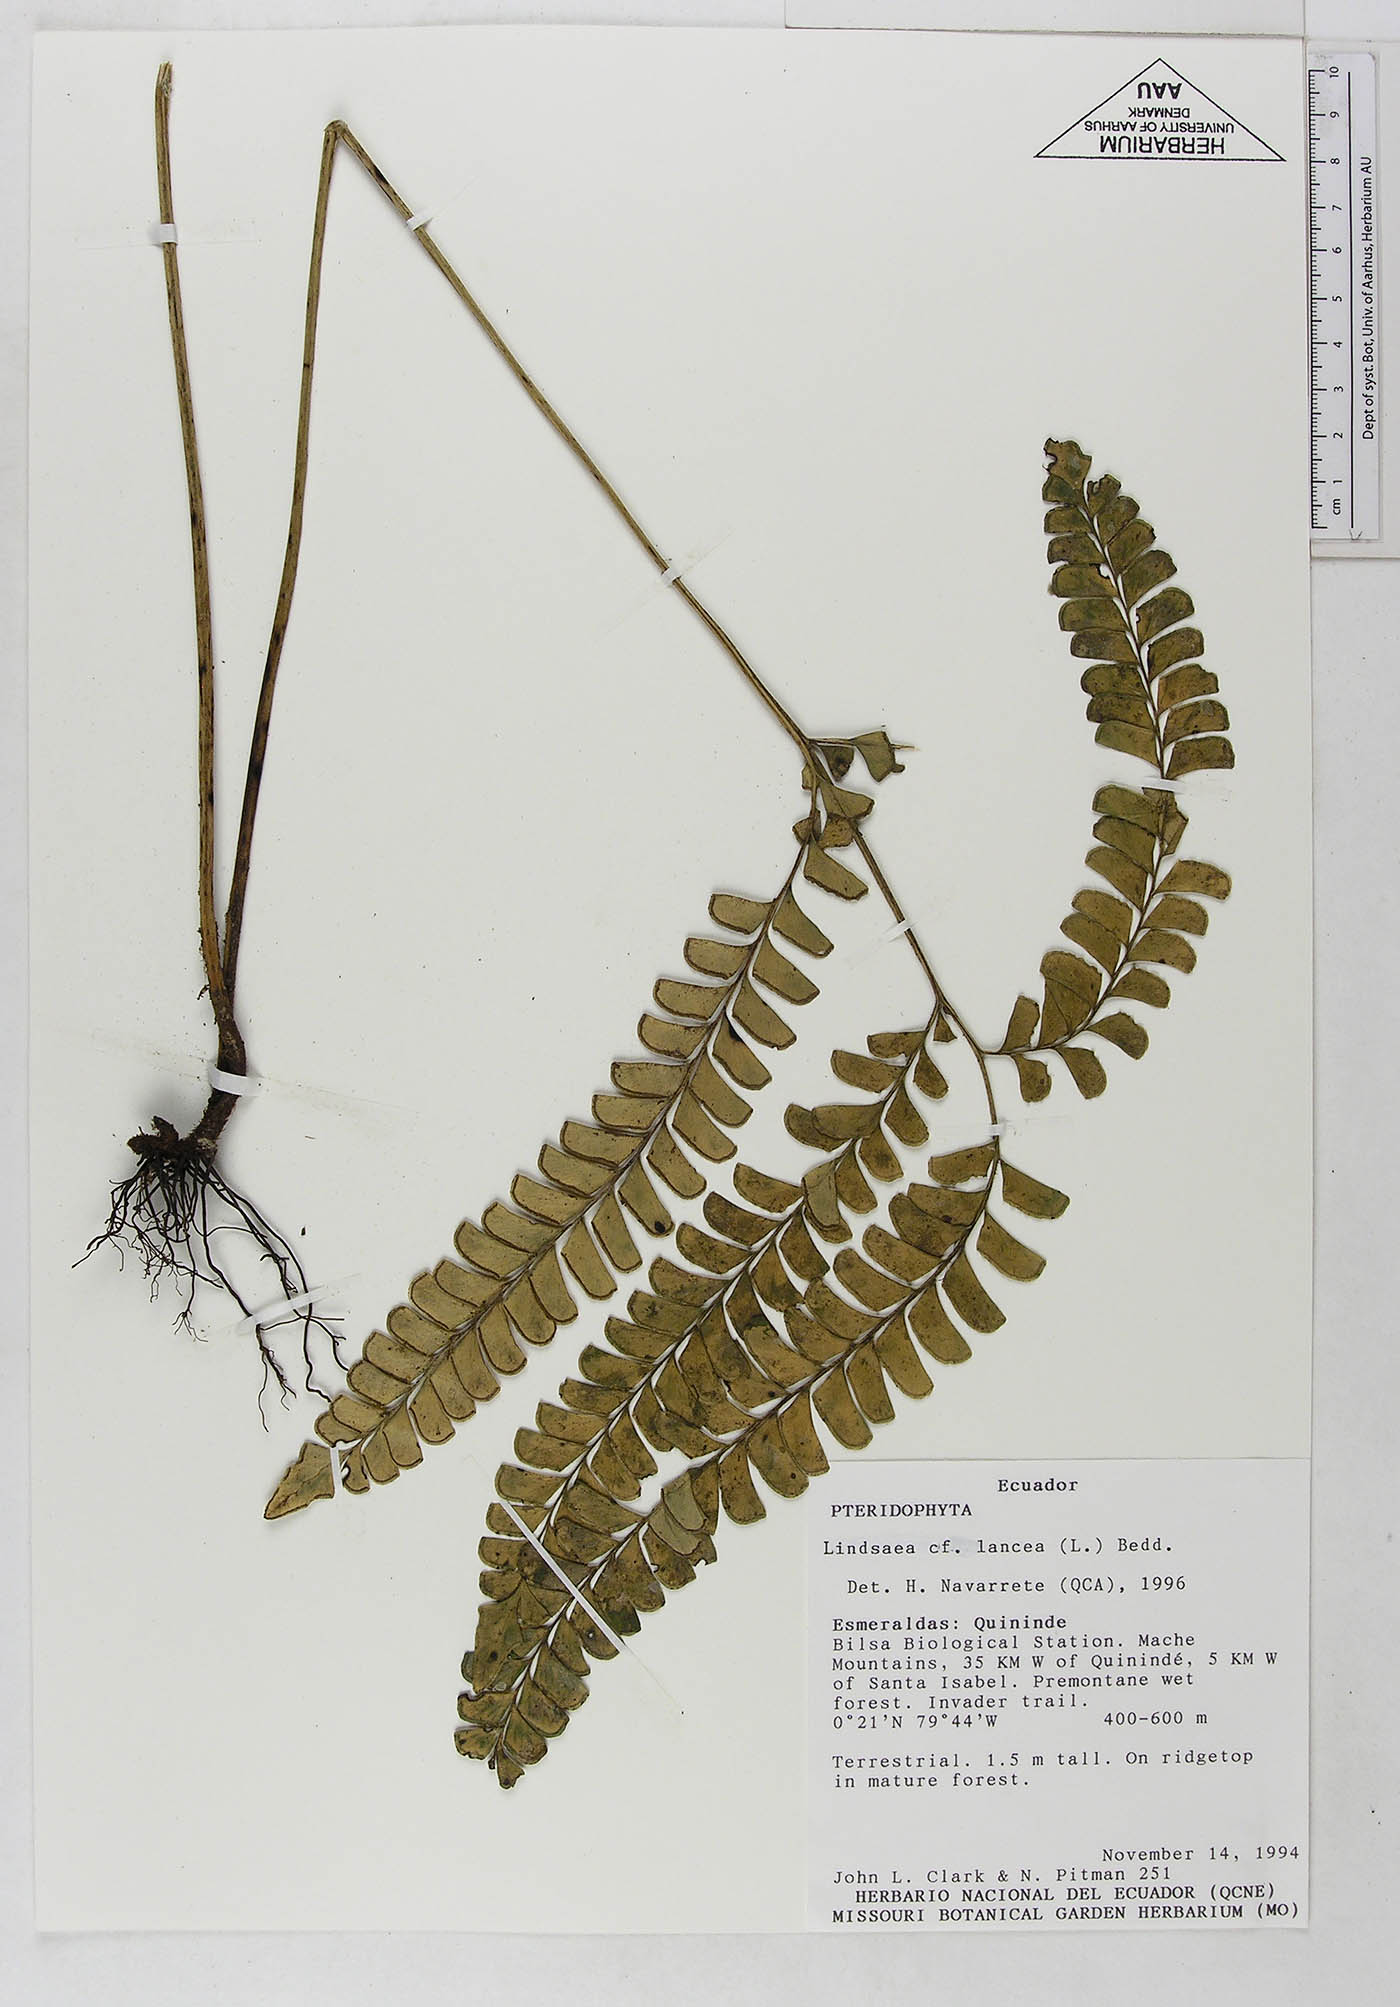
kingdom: Plantae
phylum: Tracheophyta
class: Polypodiopsida
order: Polypodiales
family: Dennstaedtiaceae
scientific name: Dennstaedtiaceae
